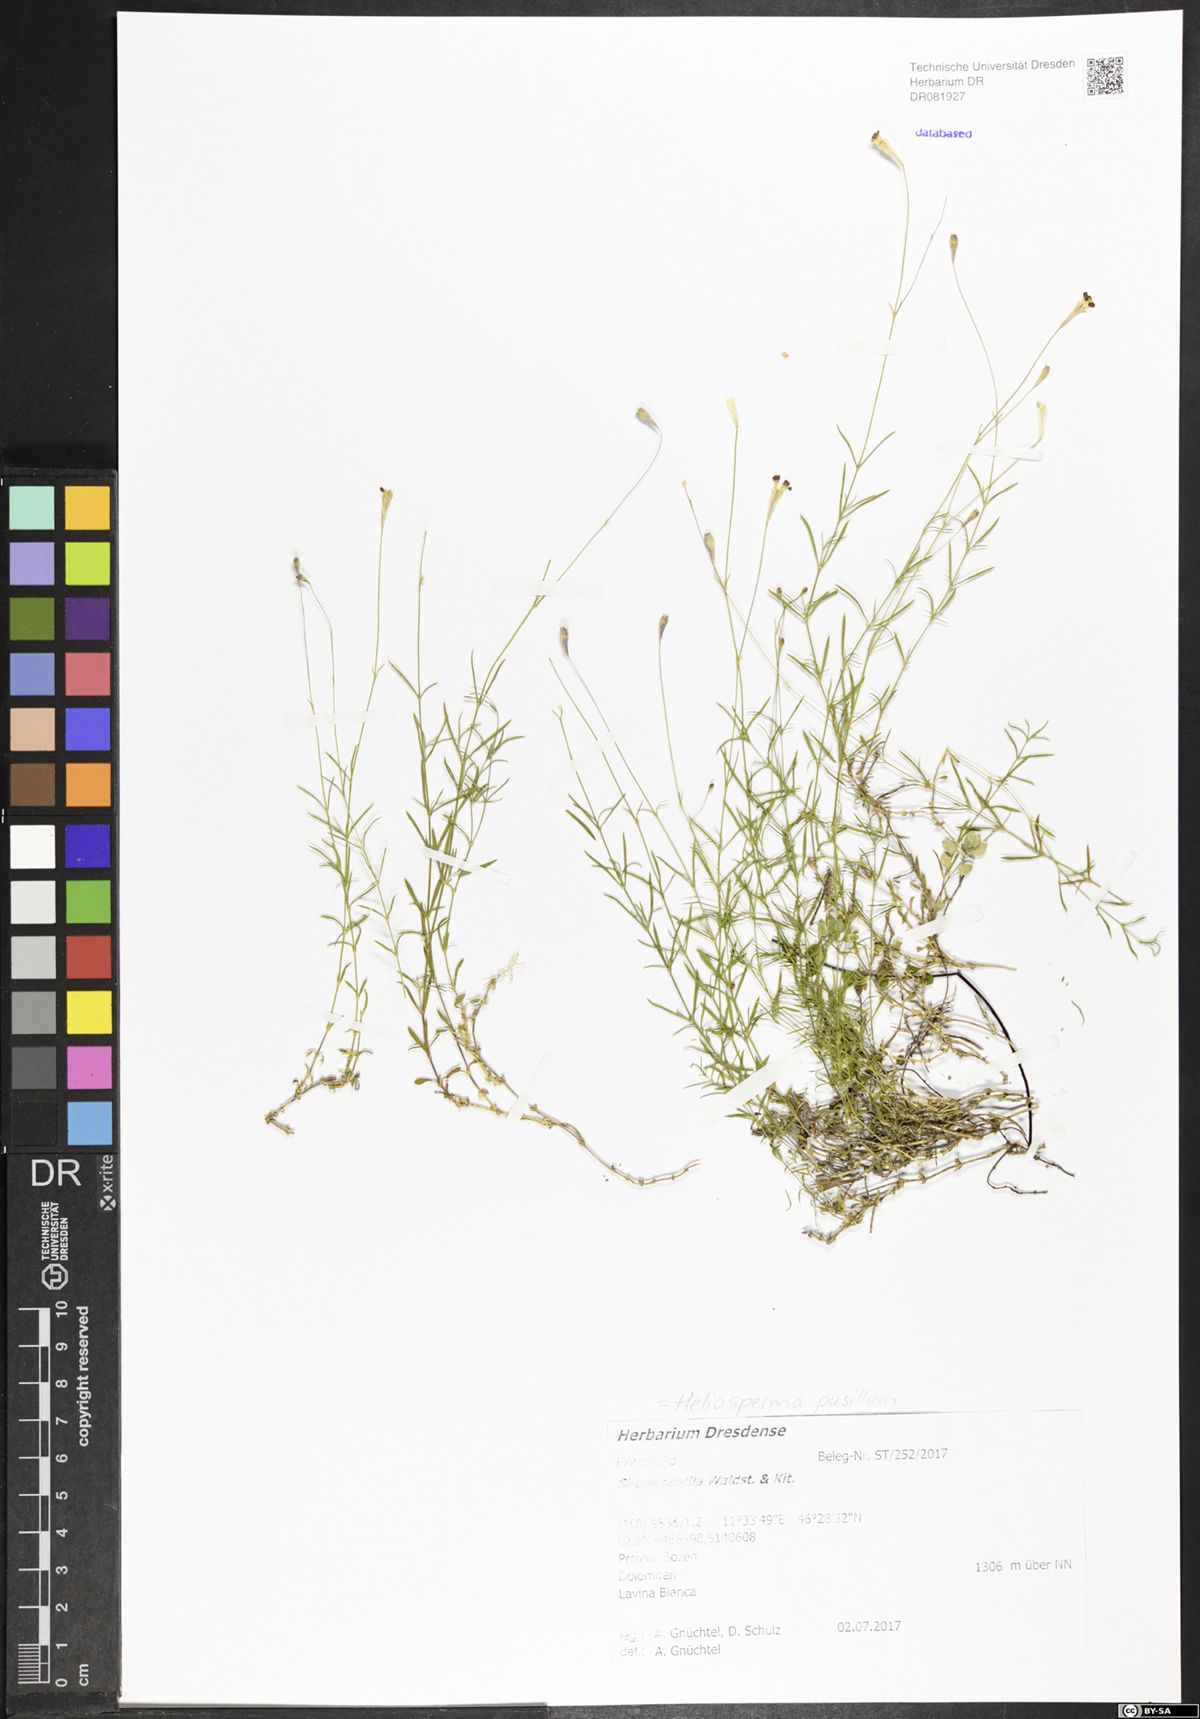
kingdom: Plantae
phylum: Tracheophyta
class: Magnoliopsida
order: Caryophyllales
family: Caryophyllaceae
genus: Heliosperma
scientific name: Heliosperma pusillum
